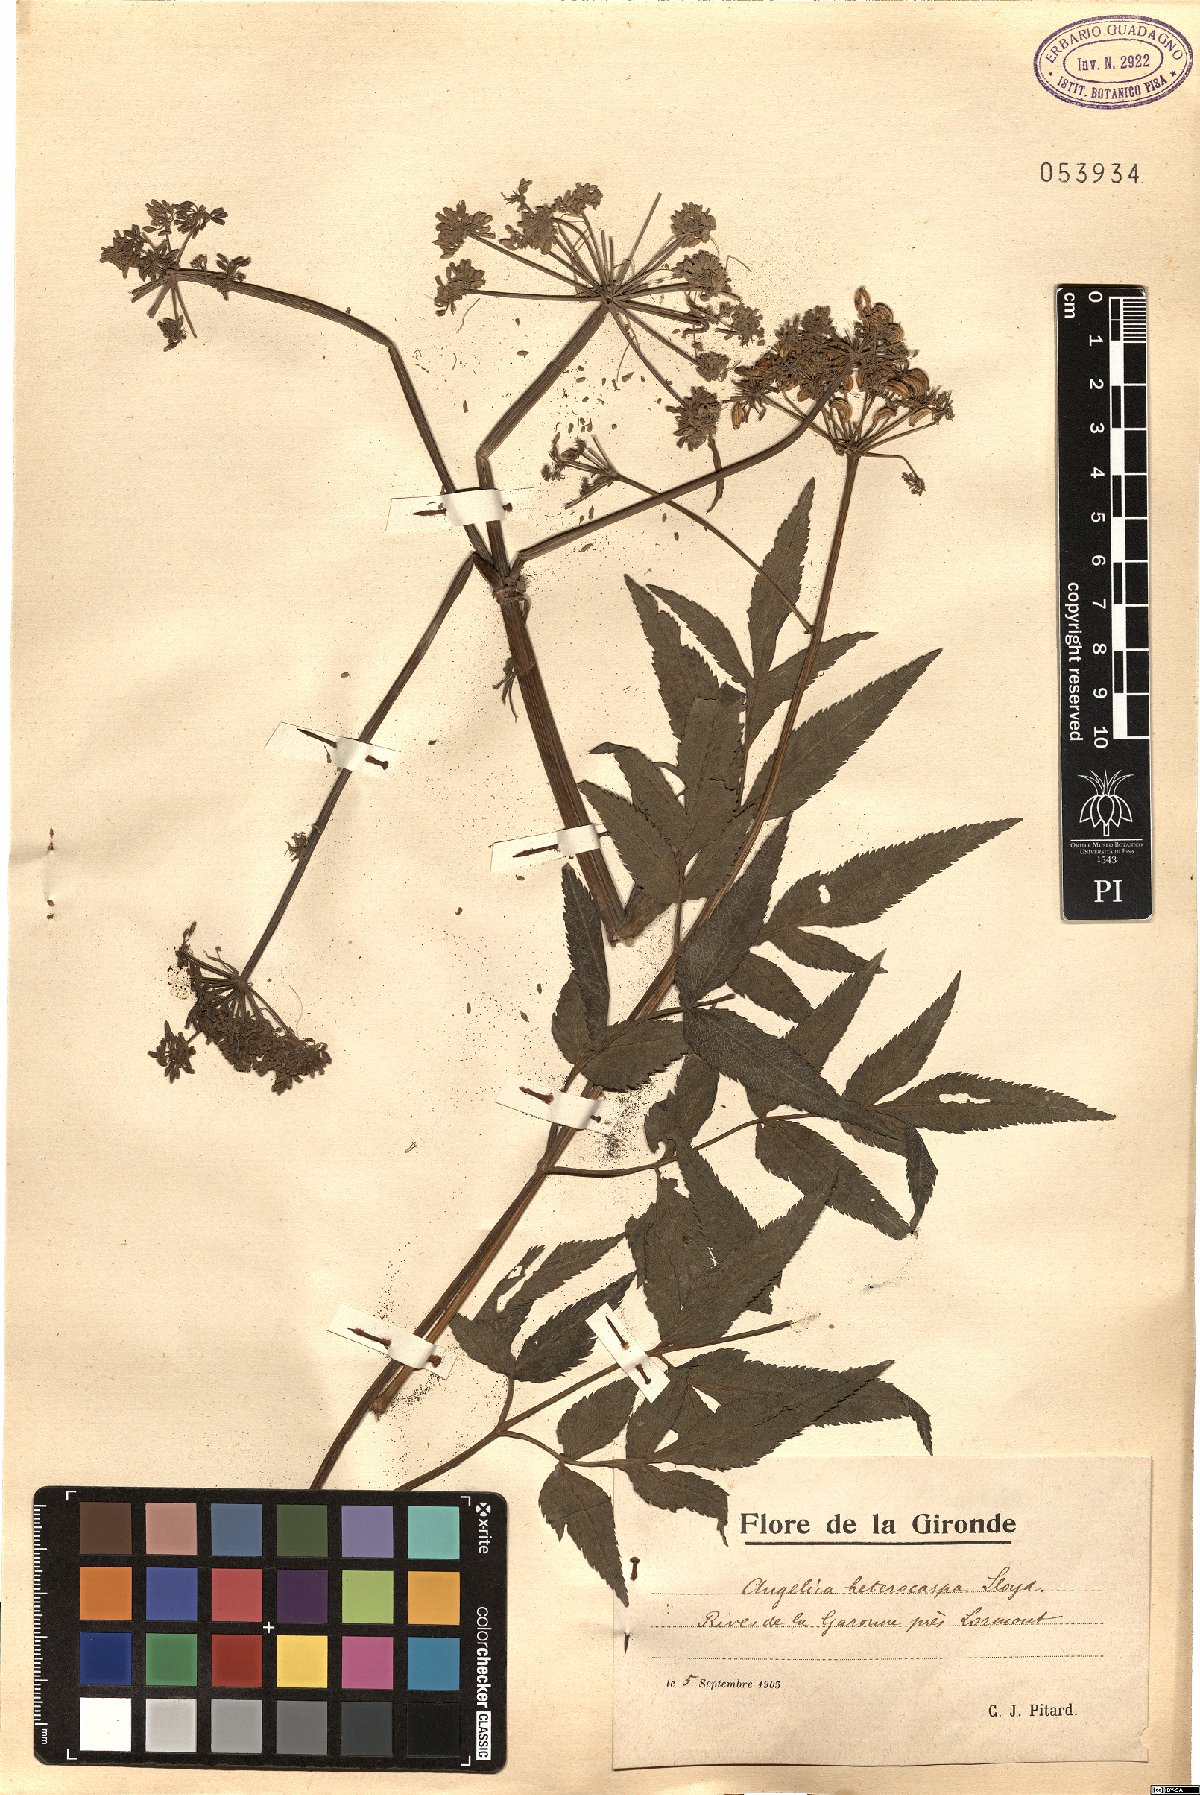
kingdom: Plantae
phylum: Tracheophyta
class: Magnoliopsida
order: Apiales
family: Apiaceae
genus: Angelica
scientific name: Angelica heterocarpa
